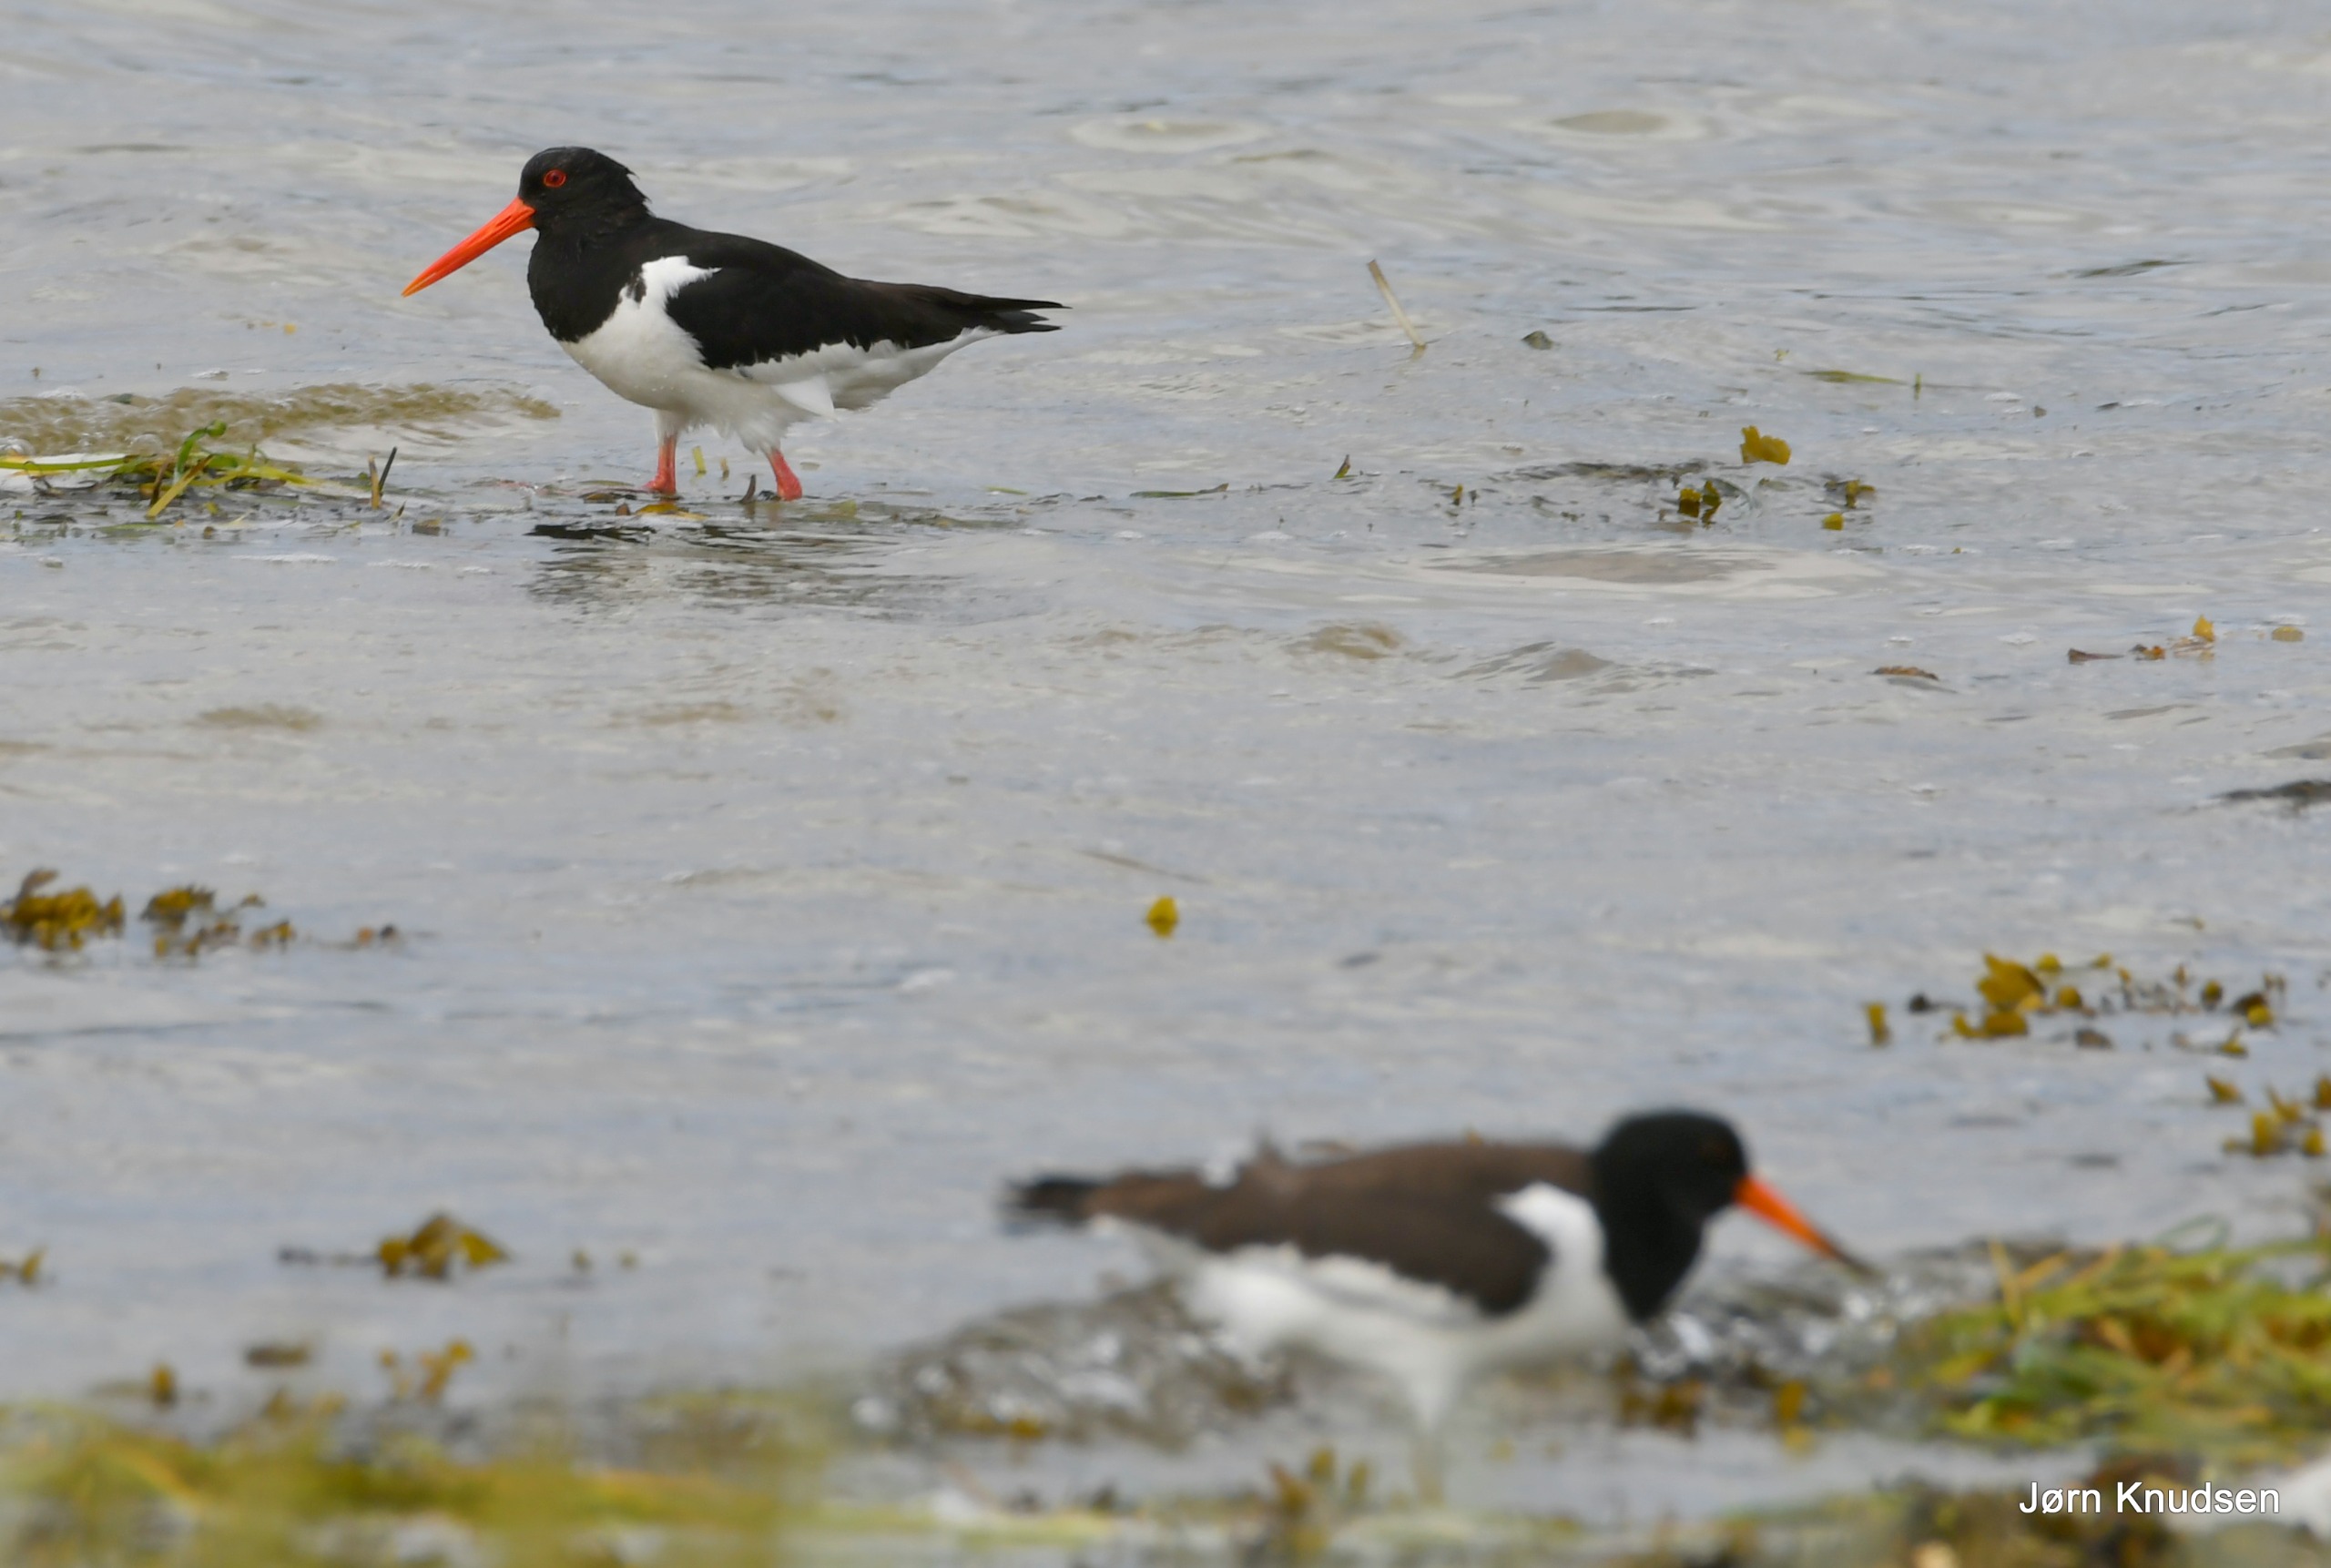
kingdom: Animalia
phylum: Chordata
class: Aves
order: Charadriiformes
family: Haematopodidae
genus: Haematopus
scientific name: Haematopus ostralegus
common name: Strandskade
